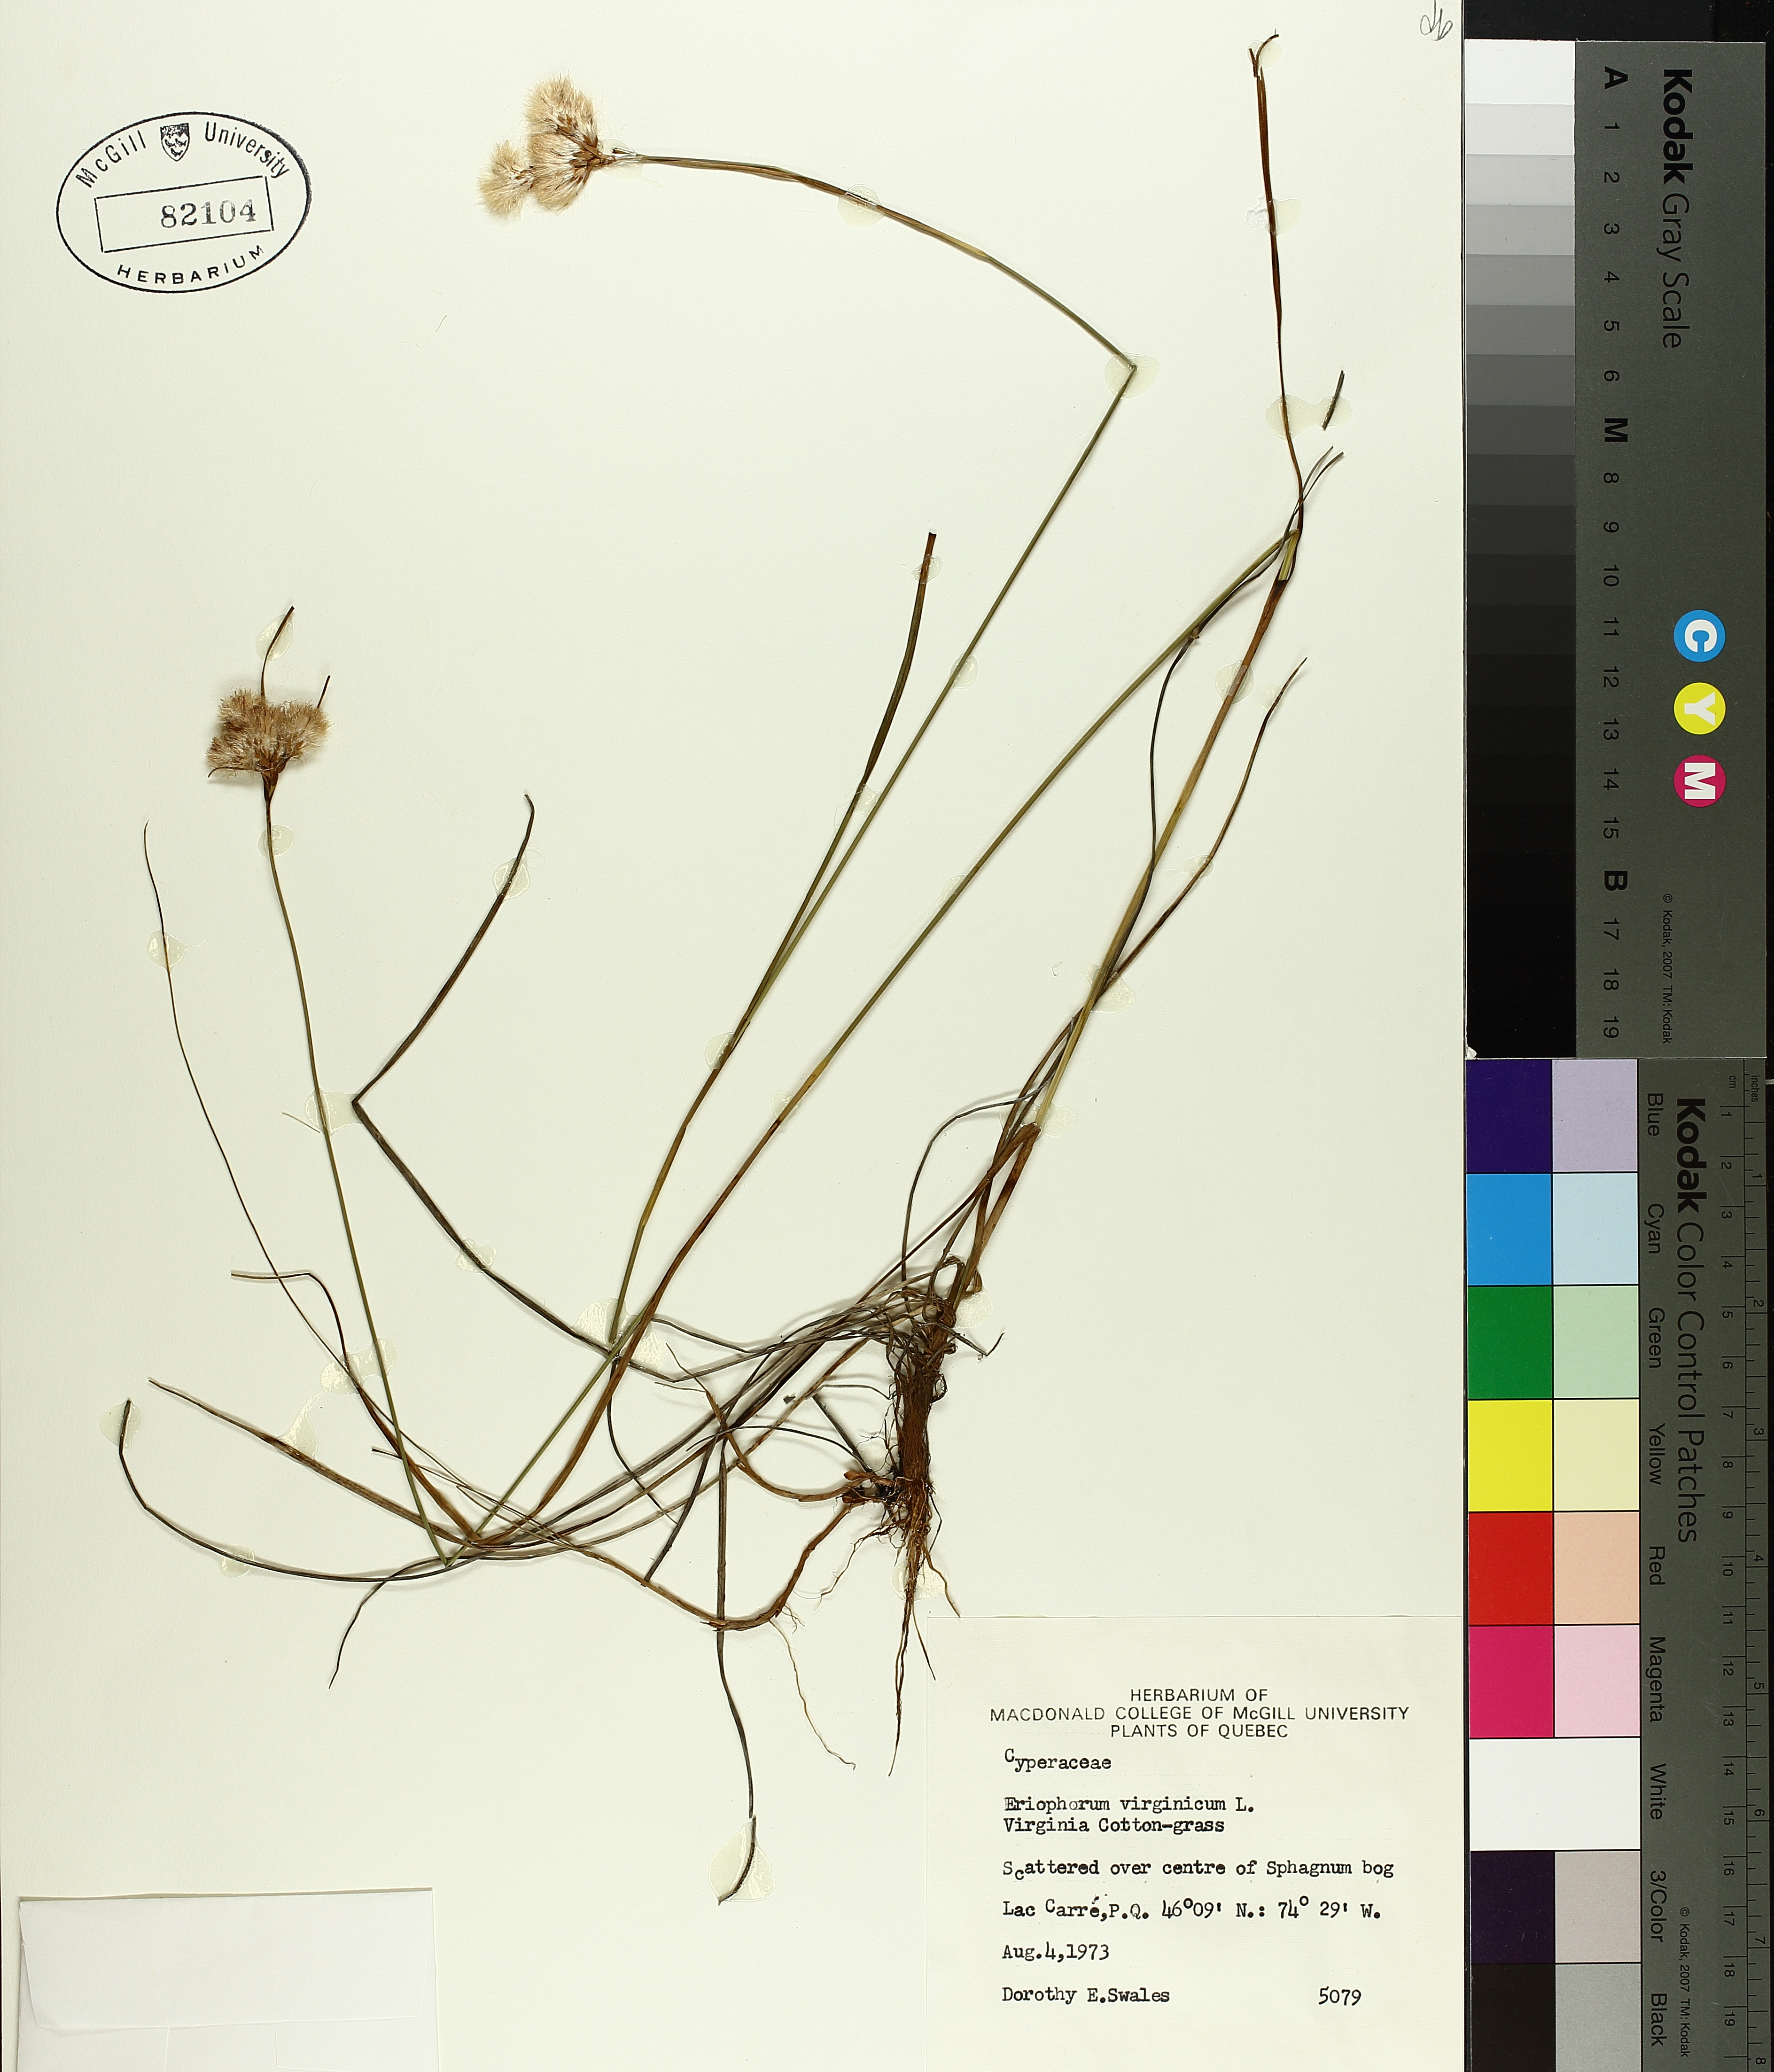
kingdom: Plantae
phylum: Tracheophyta
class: Liliopsida
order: Poales
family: Cyperaceae
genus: Eriophorum
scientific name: Eriophorum virginicum
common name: Tawny cottongrass
